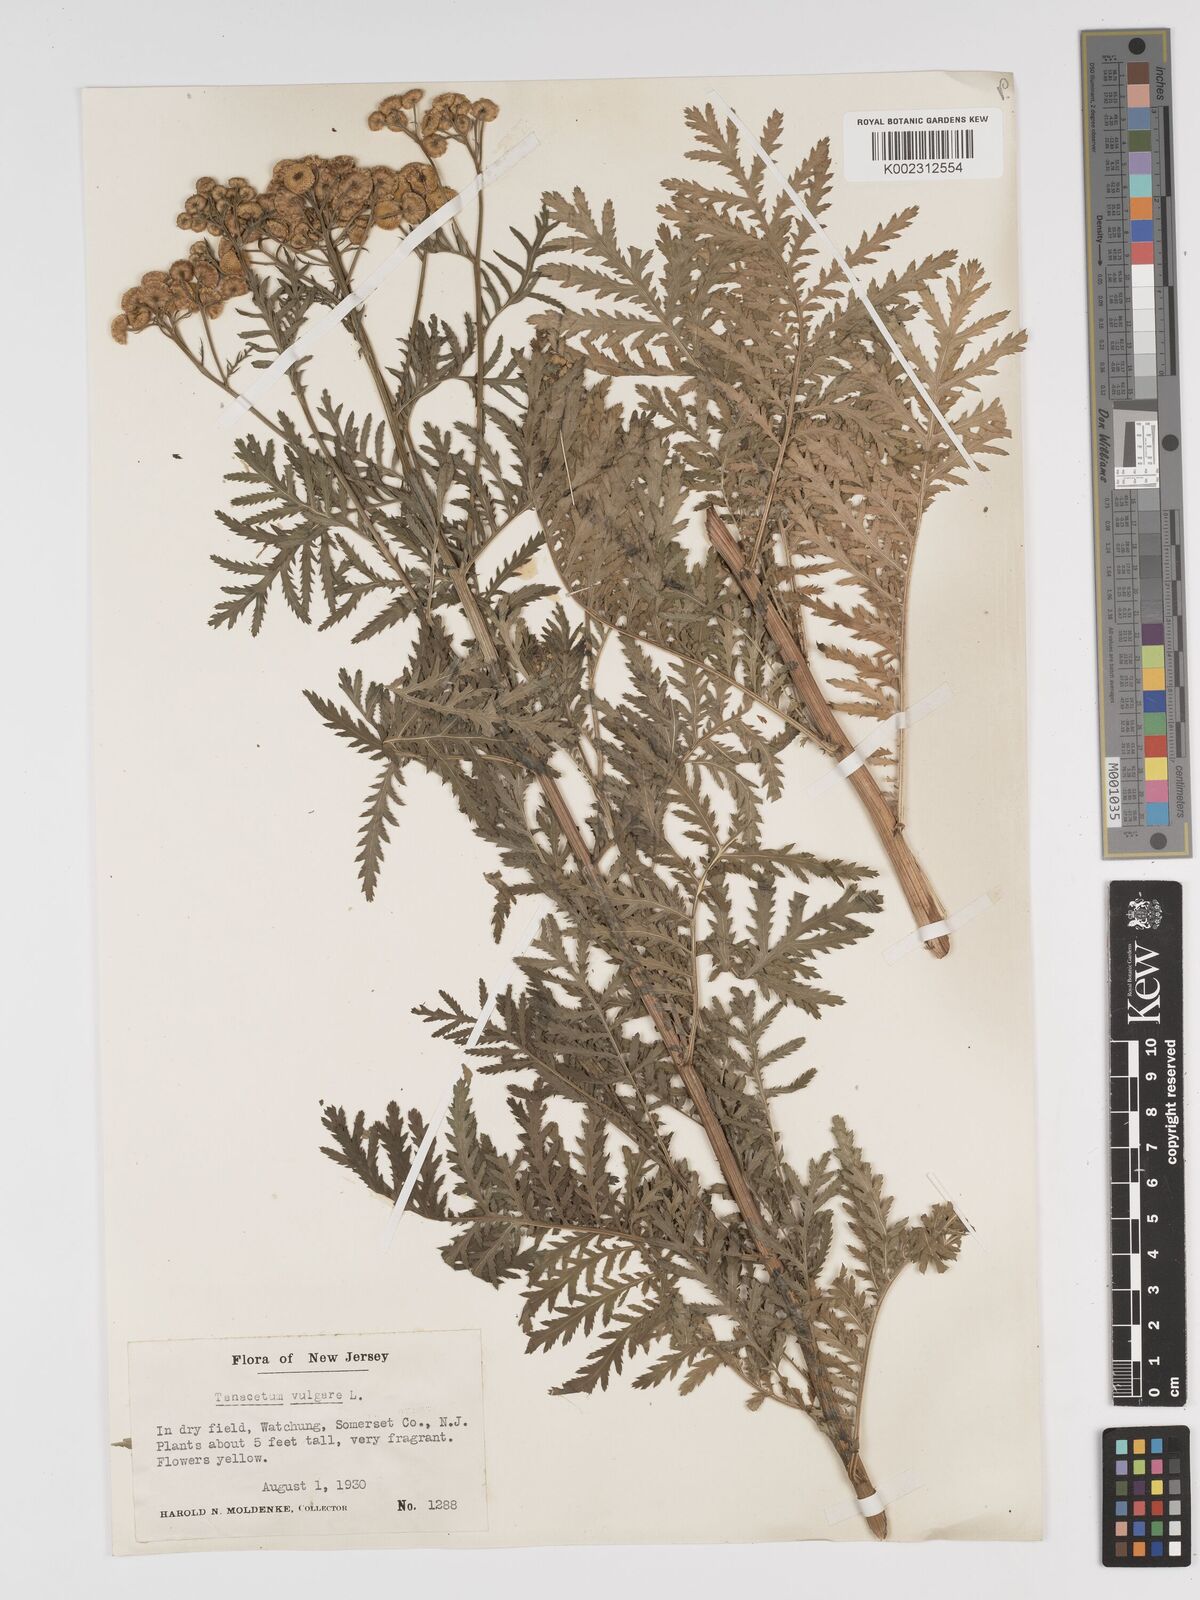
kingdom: Plantae
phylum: Tracheophyta
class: Magnoliopsida
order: Asterales
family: Asteraceae
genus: Tanacetum
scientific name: Tanacetum vulgare
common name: Common tansy
